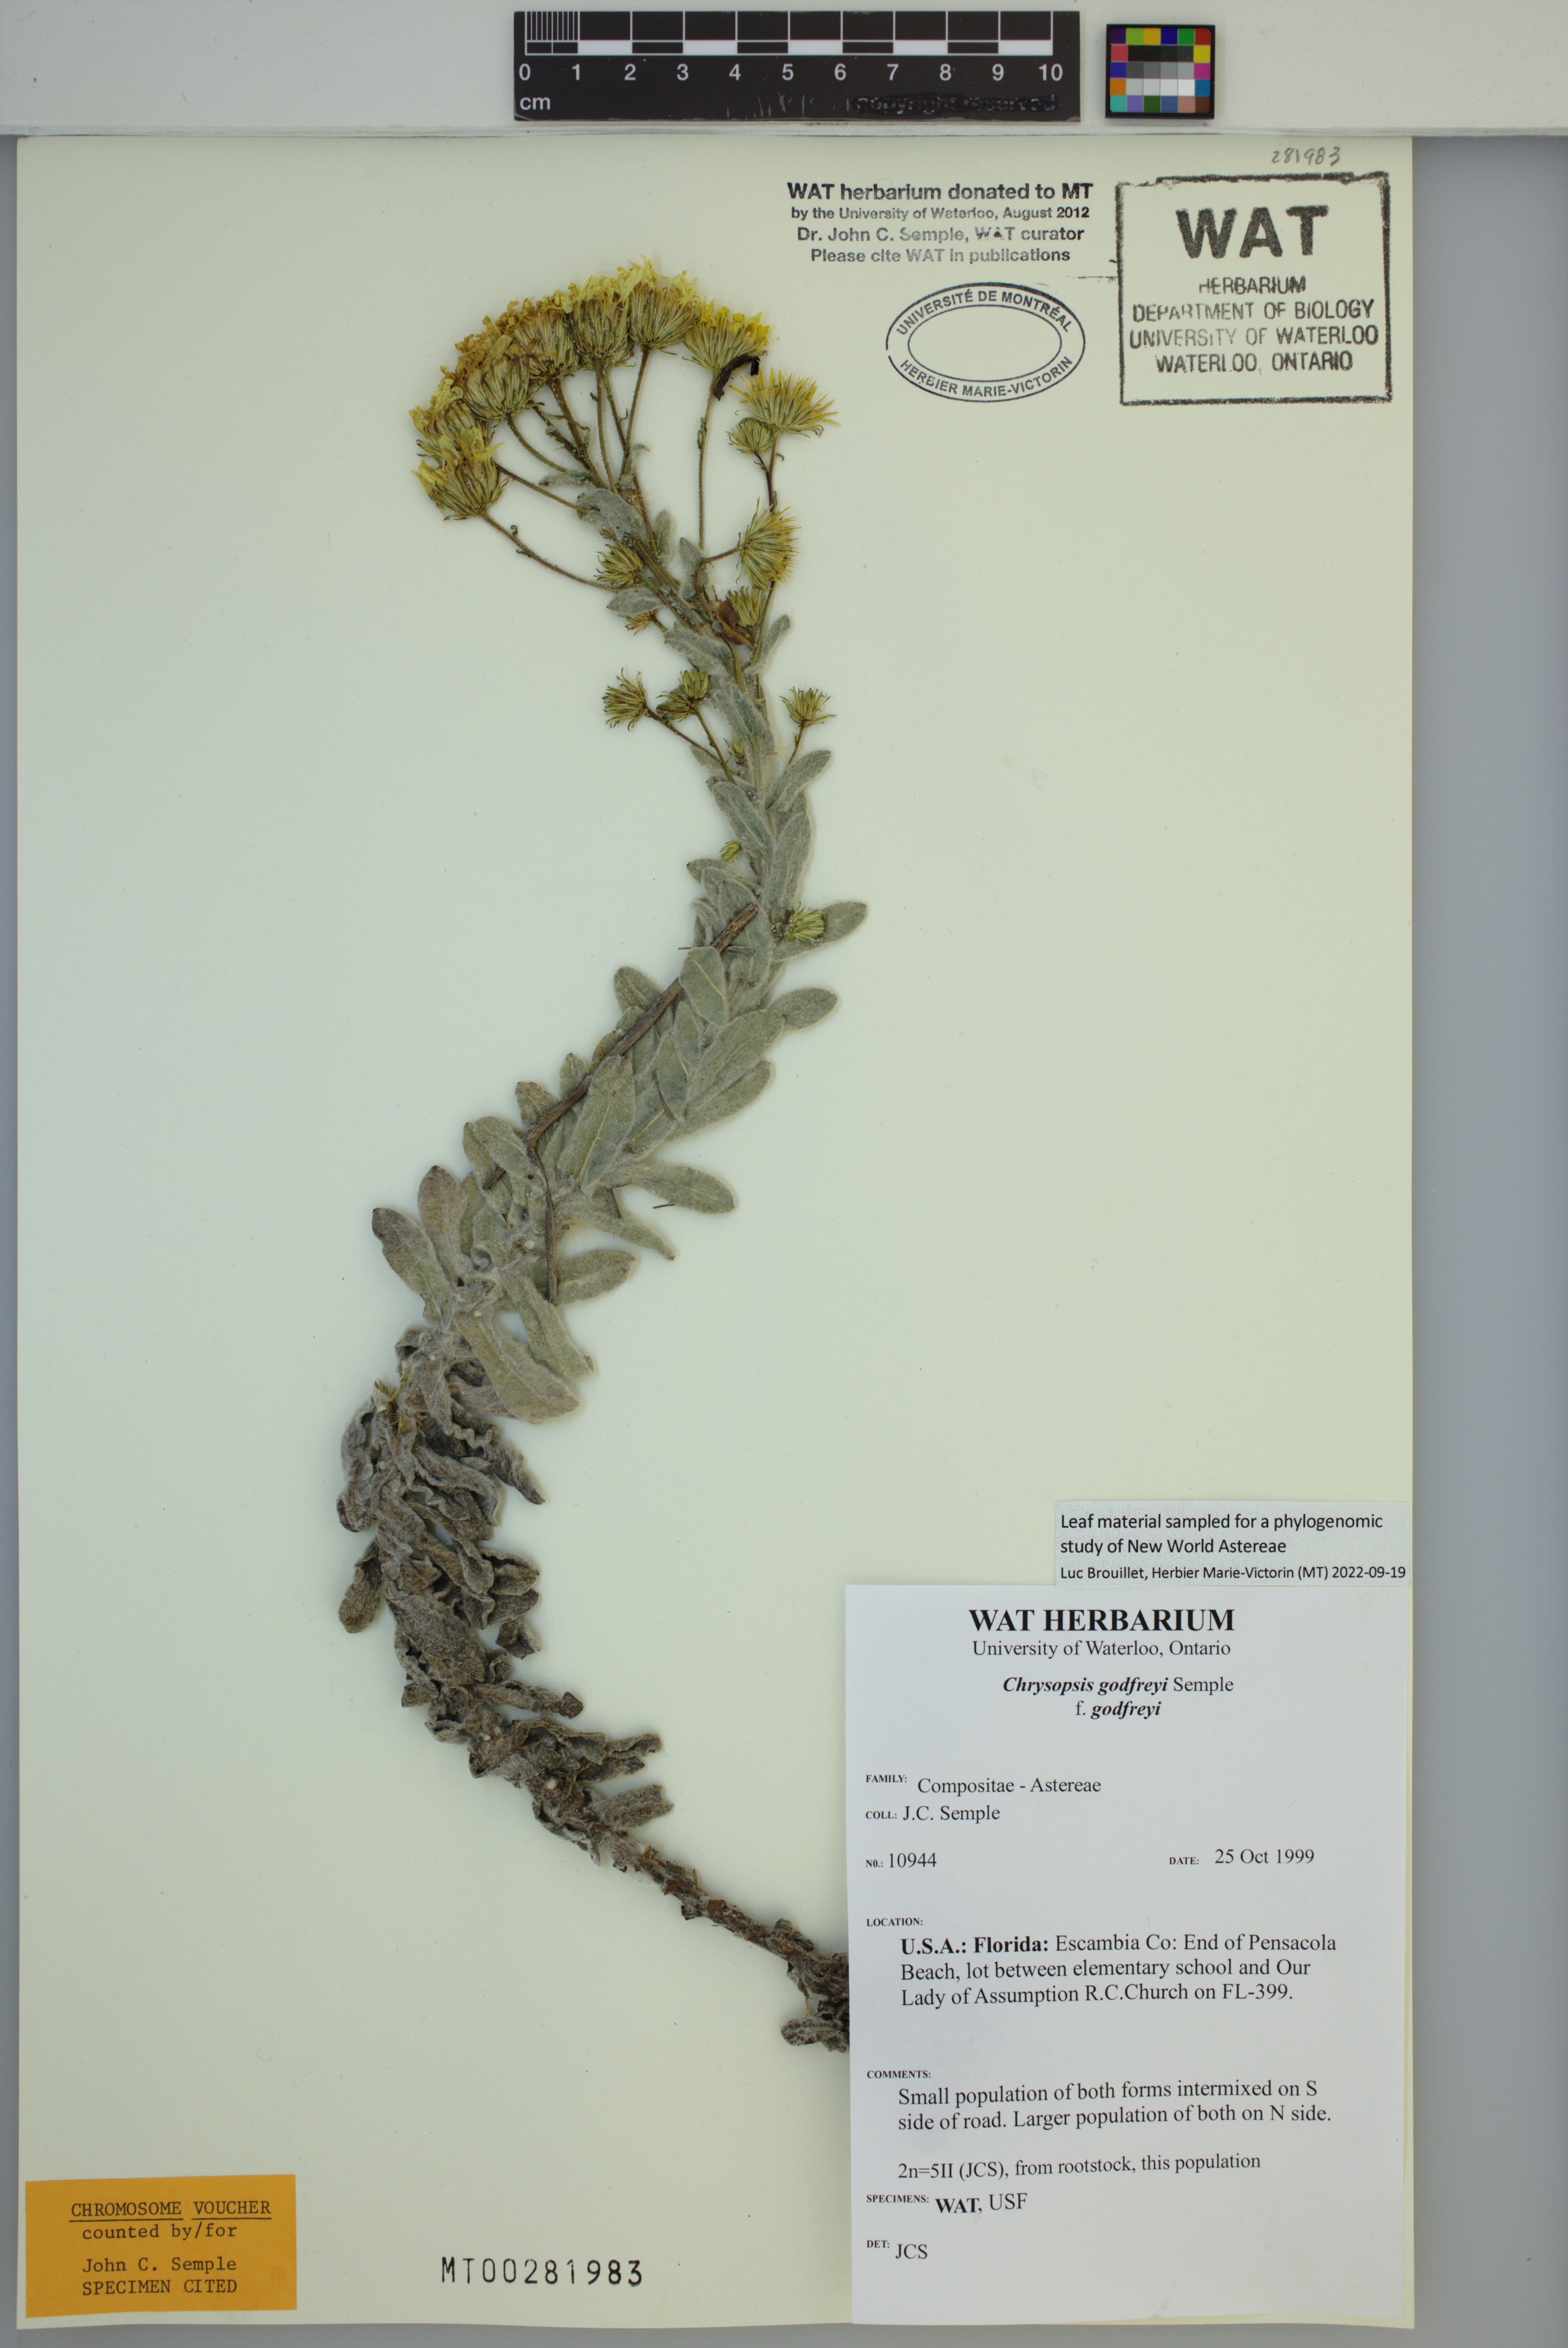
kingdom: Plantae
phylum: Tracheophyta
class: Magnoliopsida
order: Asterales
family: Asteraceae
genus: Chrysopsis
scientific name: Chrysopsis godfreyi
